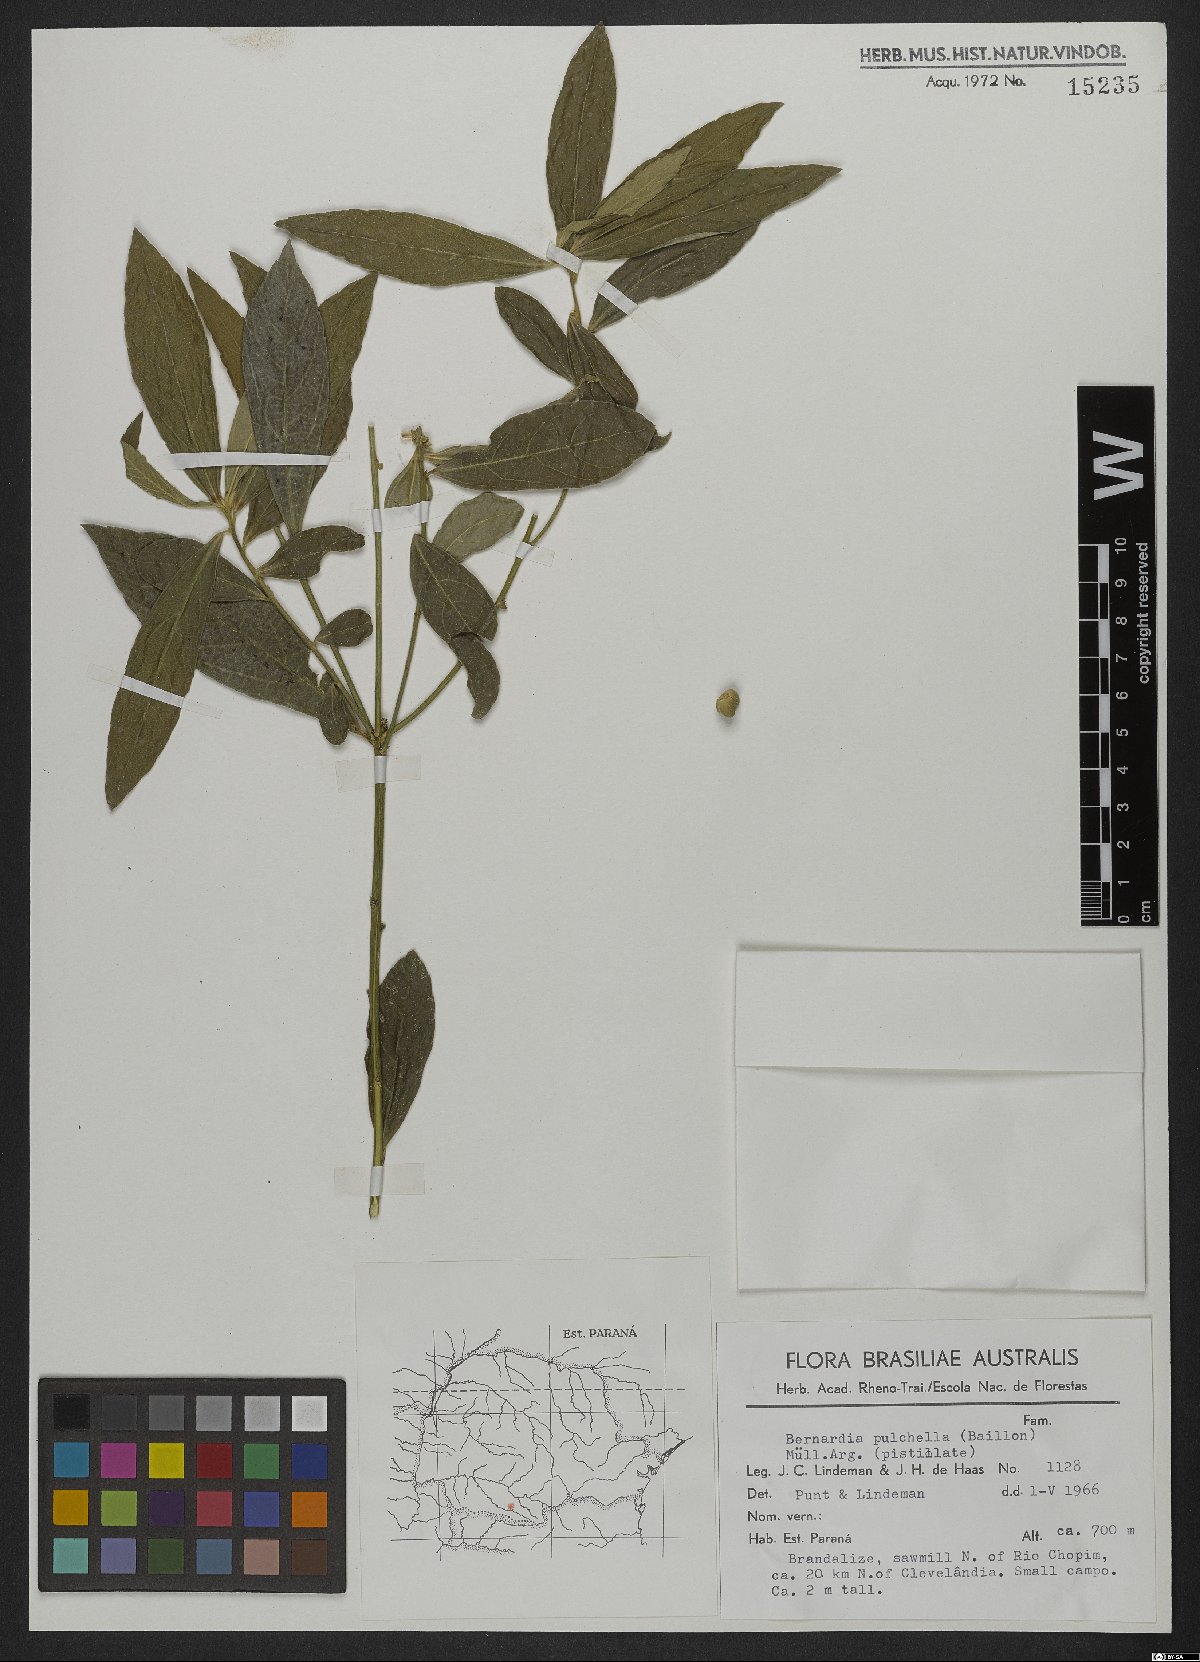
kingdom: Plantae
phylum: Tracheophyta
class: Magnoliopsida
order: Malpighiales
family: Euphorbiaceae
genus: Bernardia
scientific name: Bernardia pulchella
